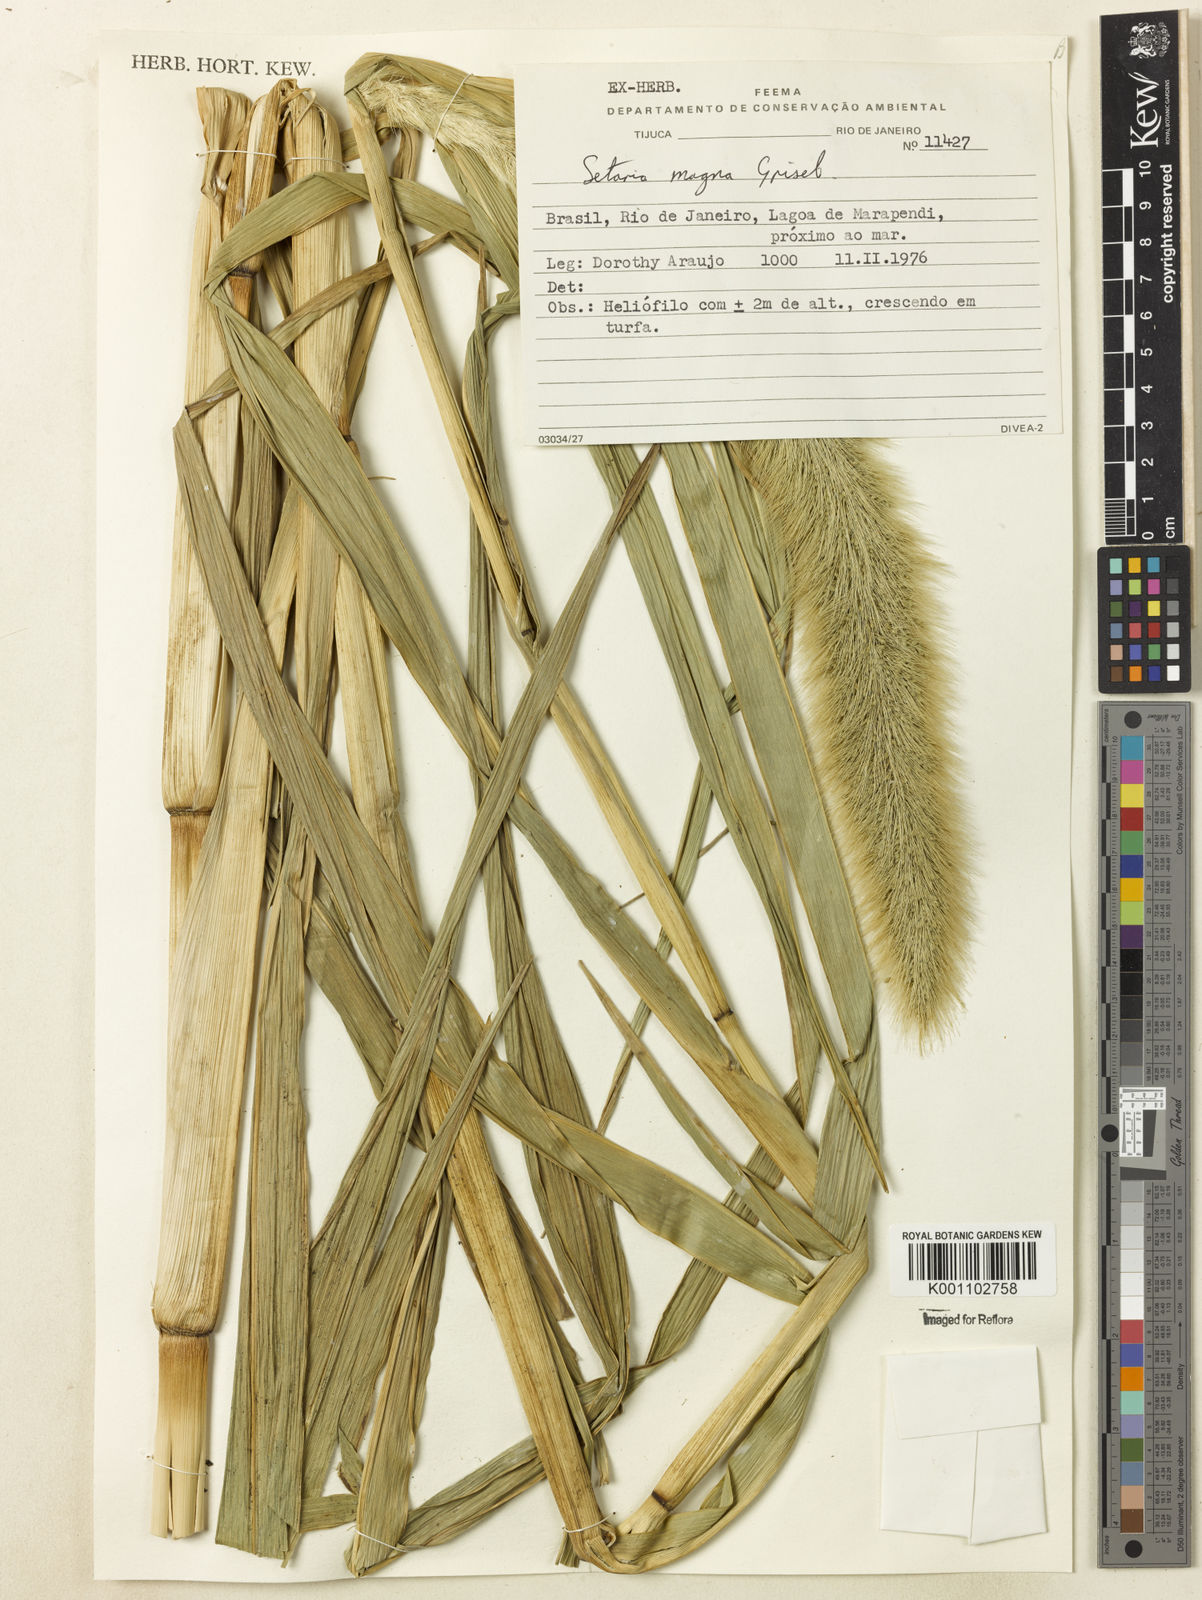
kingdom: Plantae
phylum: Tracheophyta
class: Liliopsida
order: Poales
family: Poaceae
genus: Setaria
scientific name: Setaria magna
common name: Giant bristle grass
